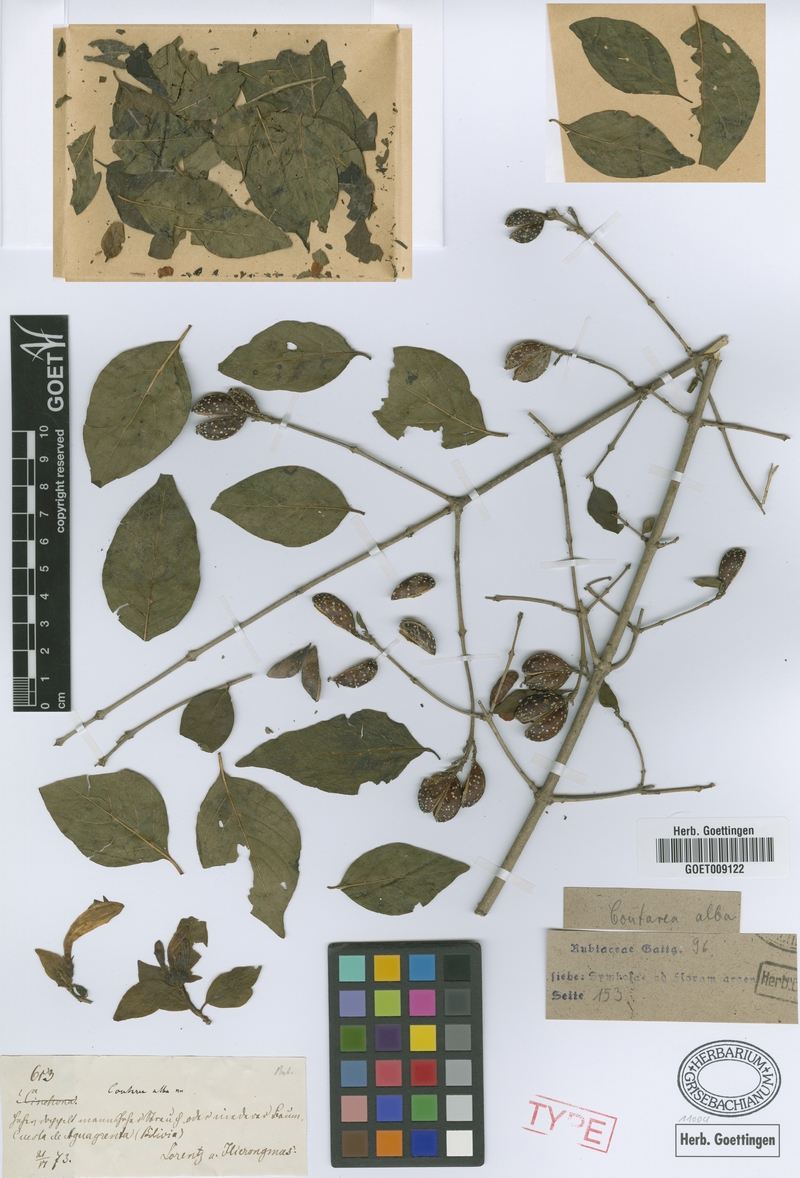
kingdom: Plantae
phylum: Tracheophyta
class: Magnoliopsida
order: Gentianales
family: Rubiaceae
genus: Coutarea
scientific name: Coutarea hexandra
